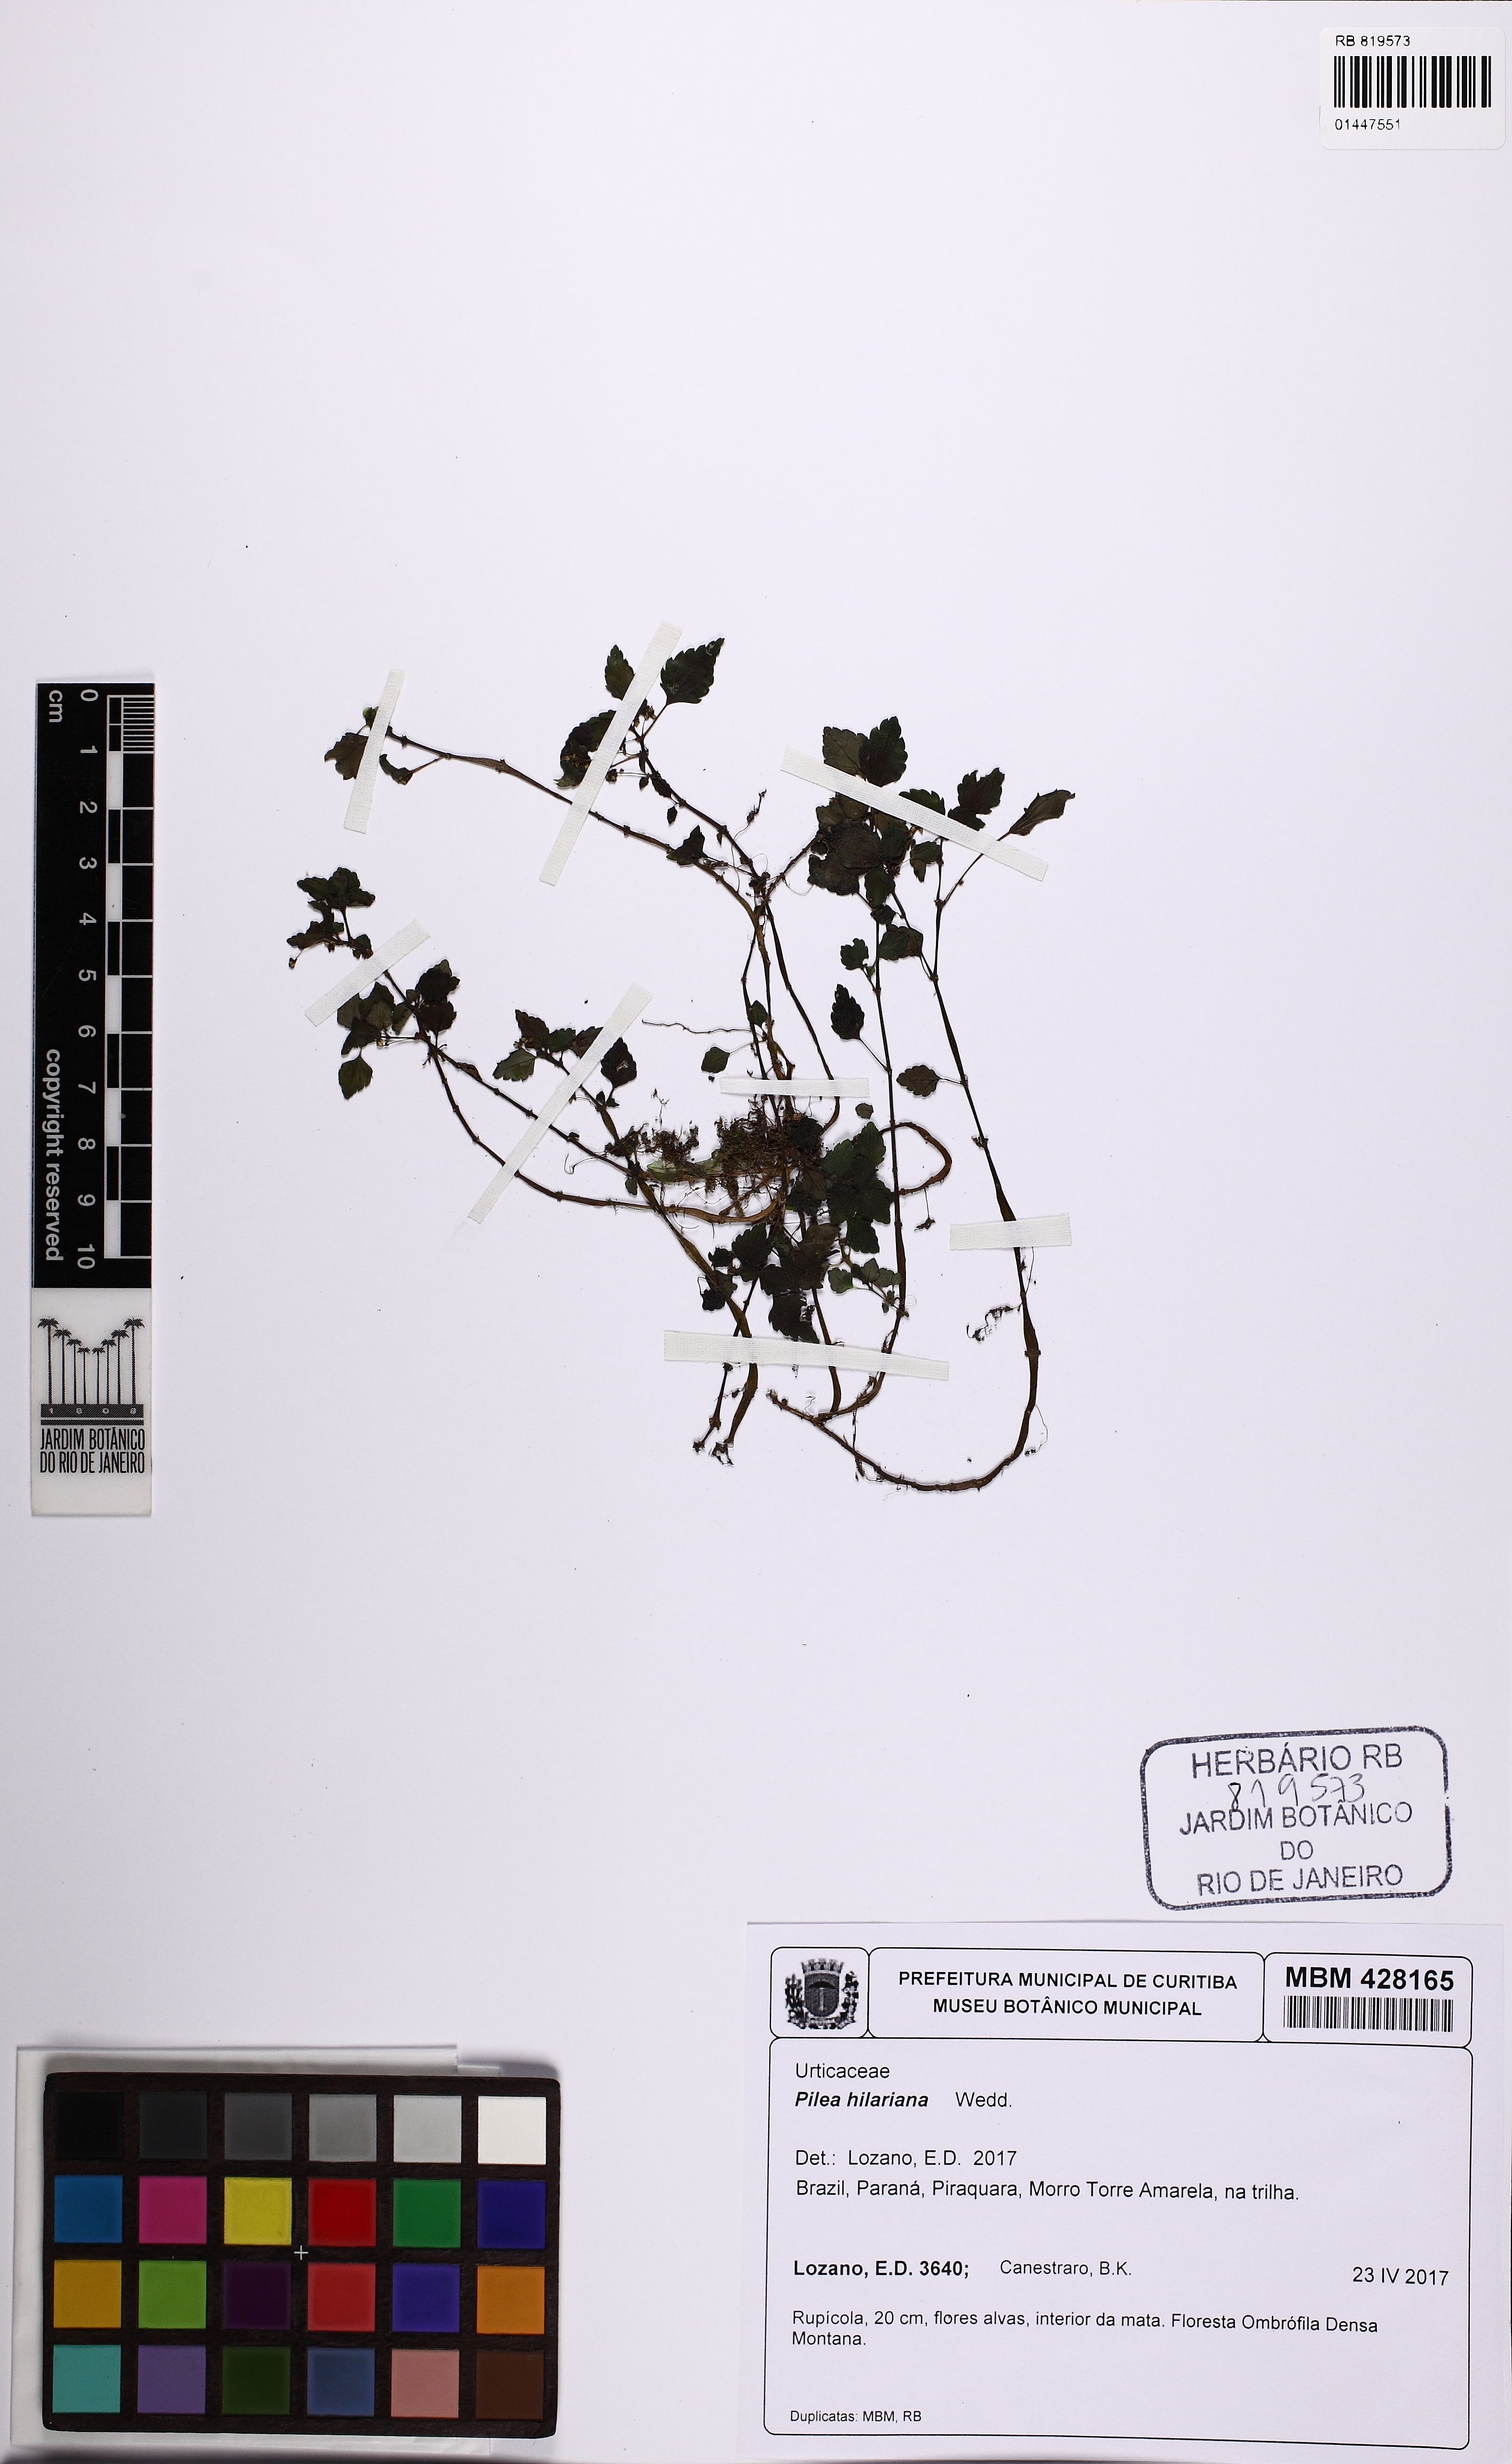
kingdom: Plantae
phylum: Tracheophyta
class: Magnoliopsida
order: Rosales
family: Urticaceae
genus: Pilea
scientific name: Pilea hilariana
